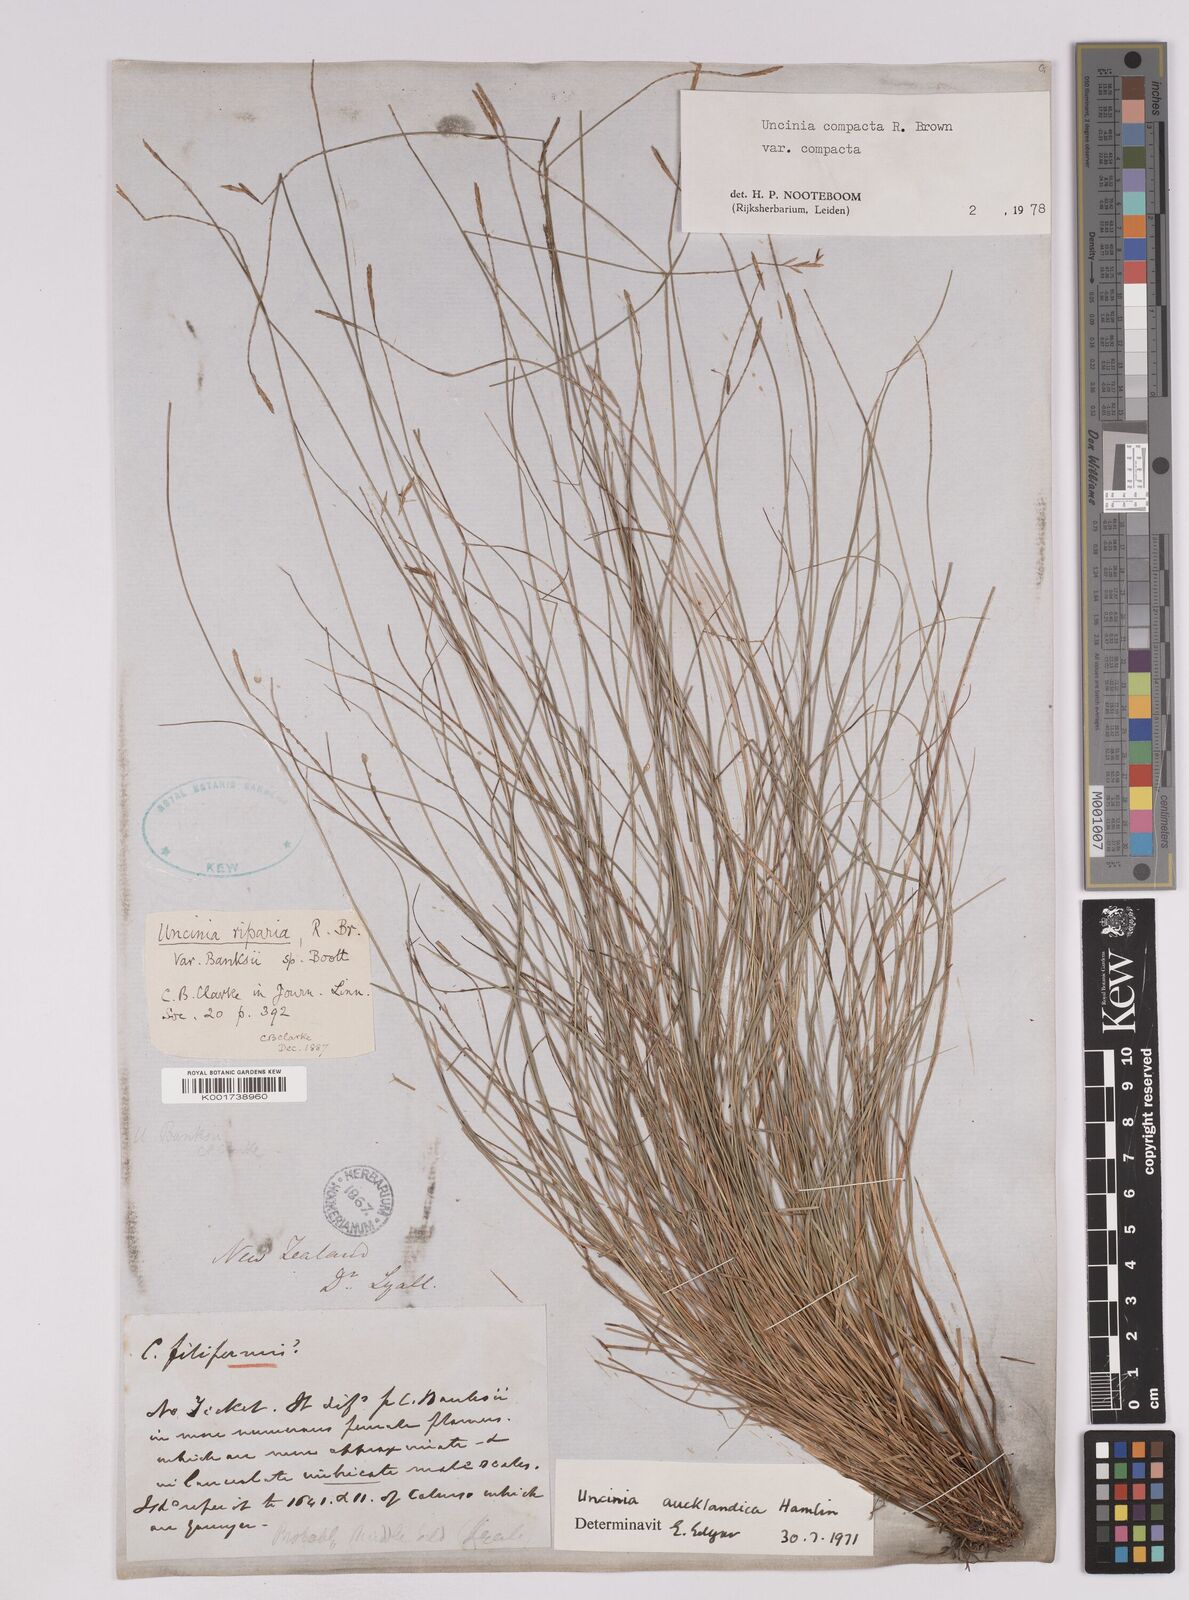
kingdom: Plantae
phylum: Tracheophyta
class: Liliopsida
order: Poales
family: Cyperaceae
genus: Carex
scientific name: Carex austrocompacta
